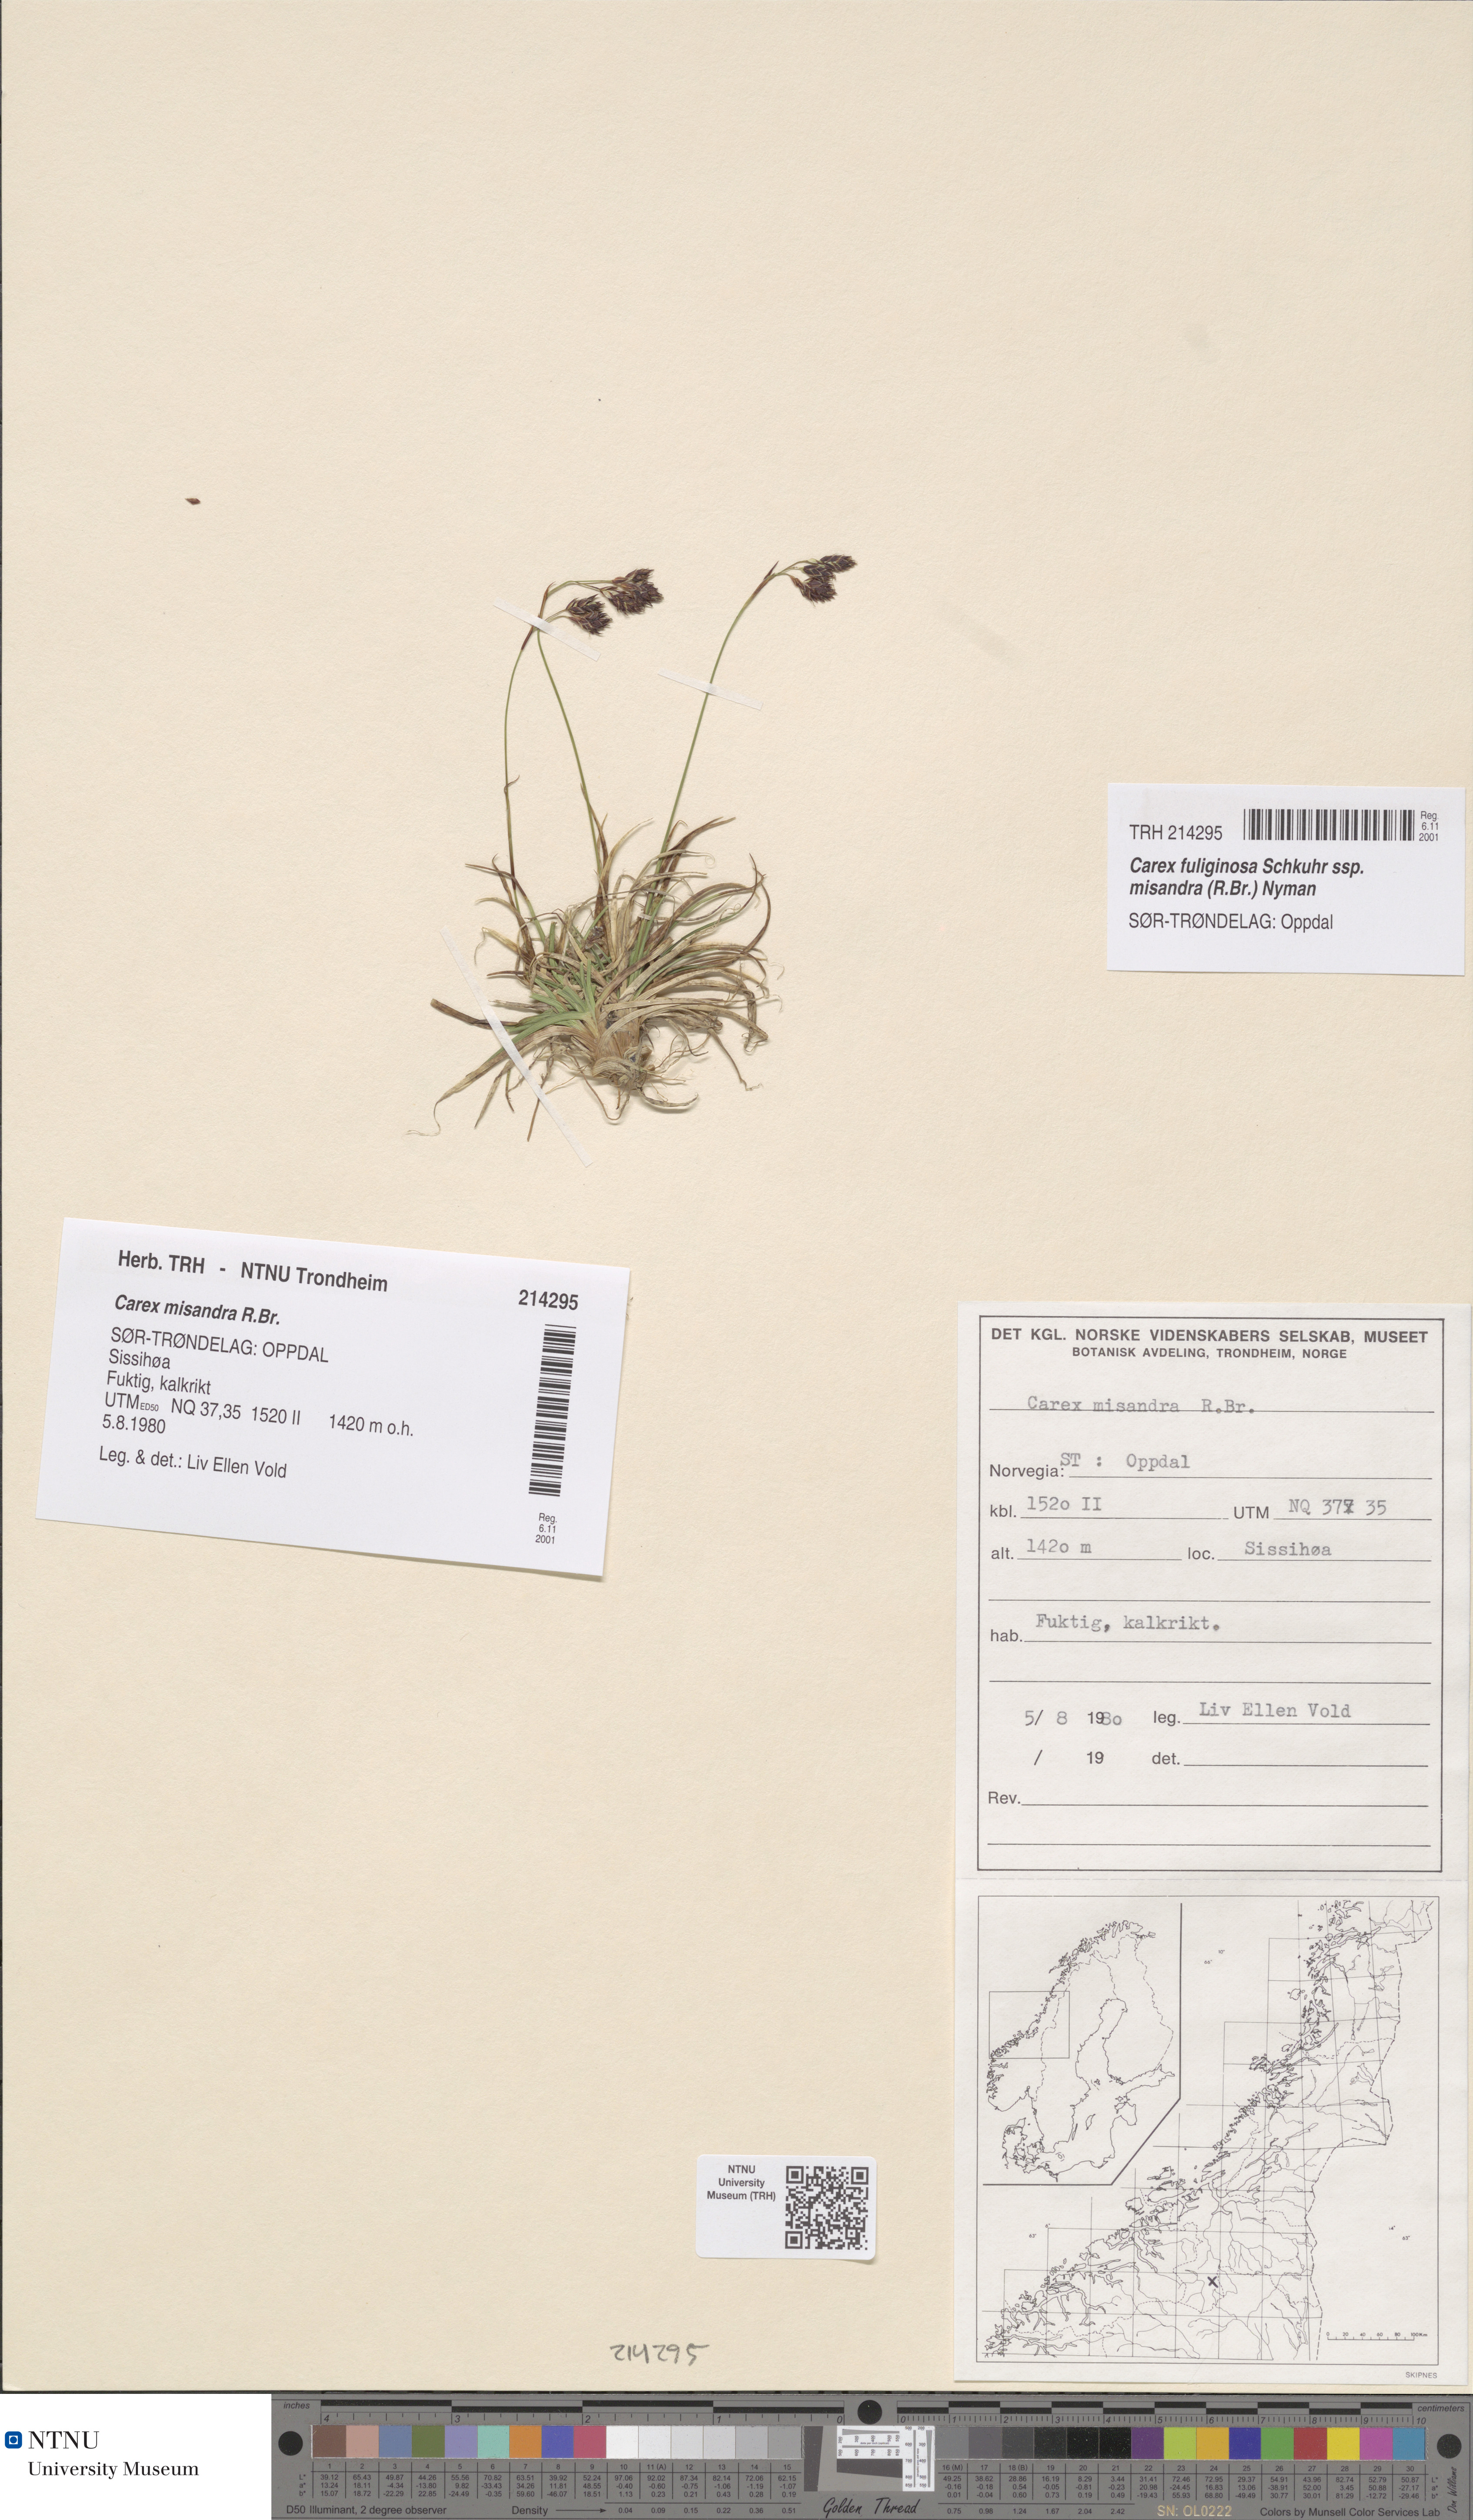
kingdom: Plantae
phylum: Tracheophyta
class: Liliopsida
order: Poales
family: Cyperaceae
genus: Carex
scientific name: Carex fuliginosa
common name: Few-flowered sedge
